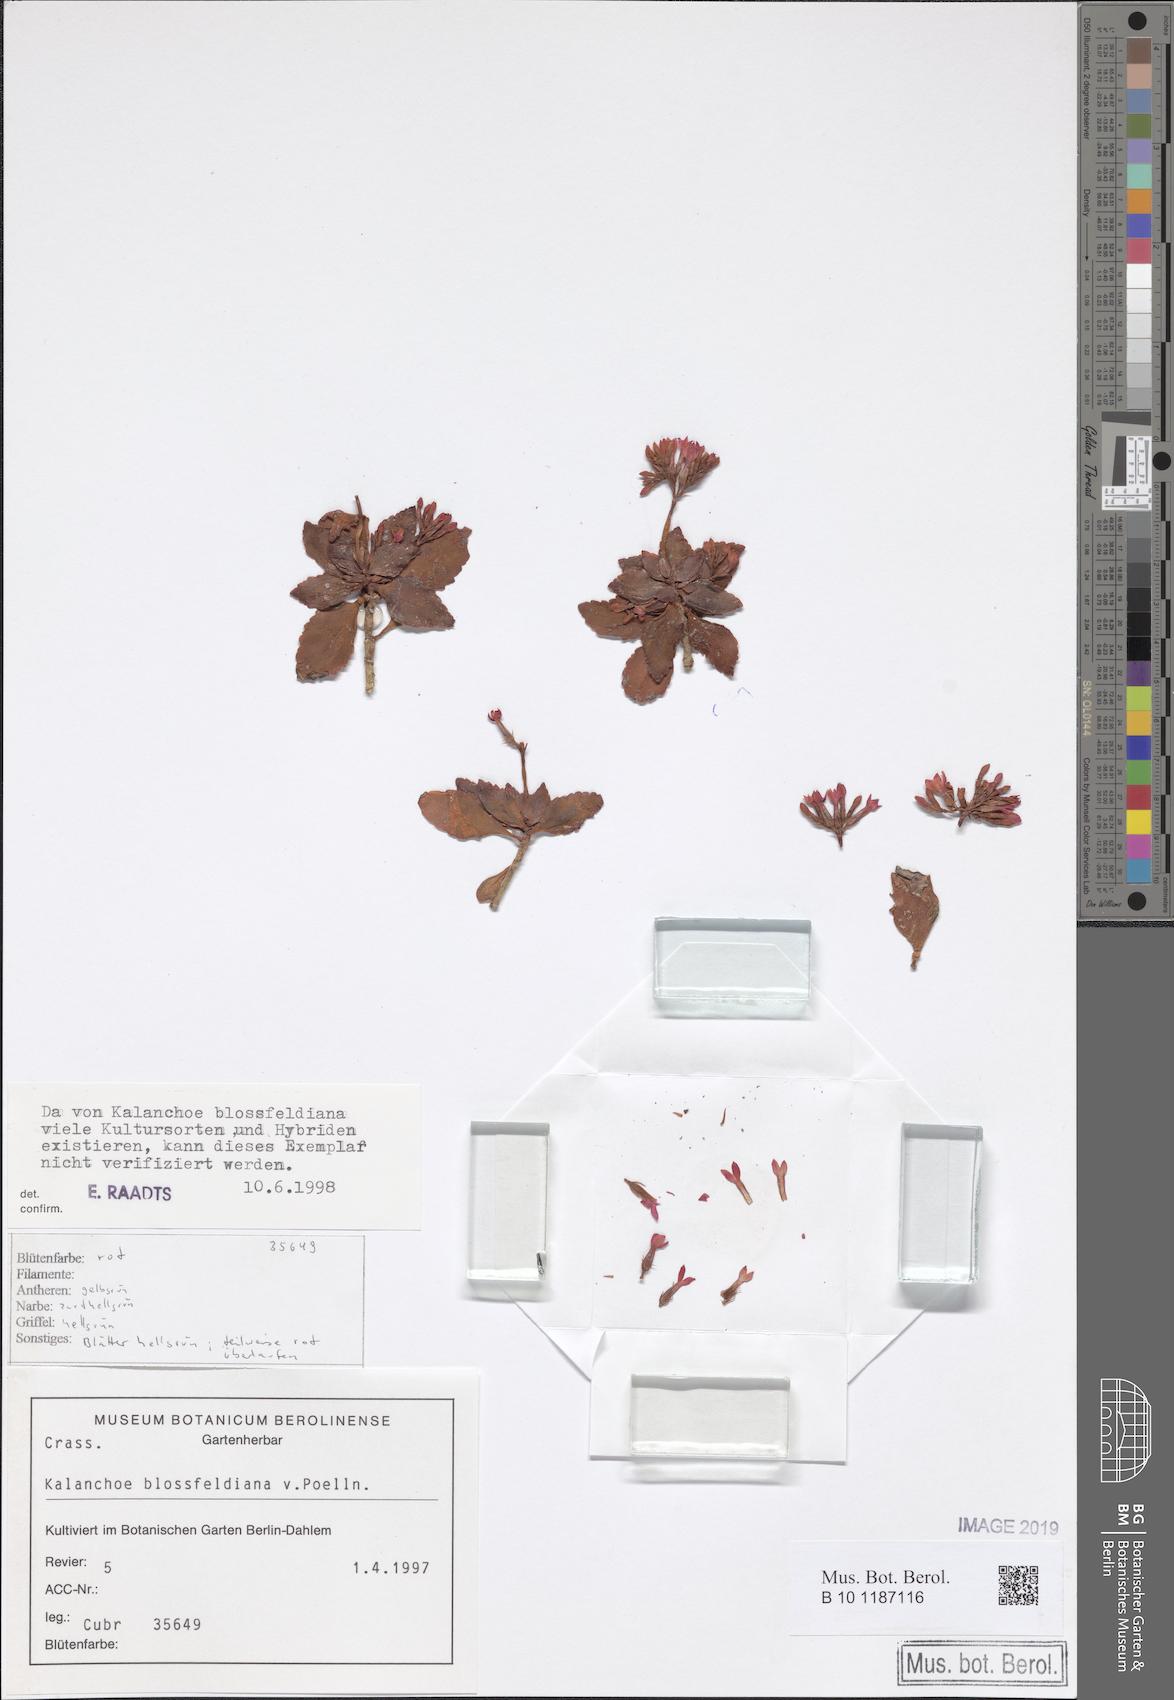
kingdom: Plantae
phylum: Tracheophyta
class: Magnoliopsida
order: Saxifragales
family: Crassulaceae
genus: Kalanchoe
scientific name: Kalanchoe blossfeldiana
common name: Flaming katy
